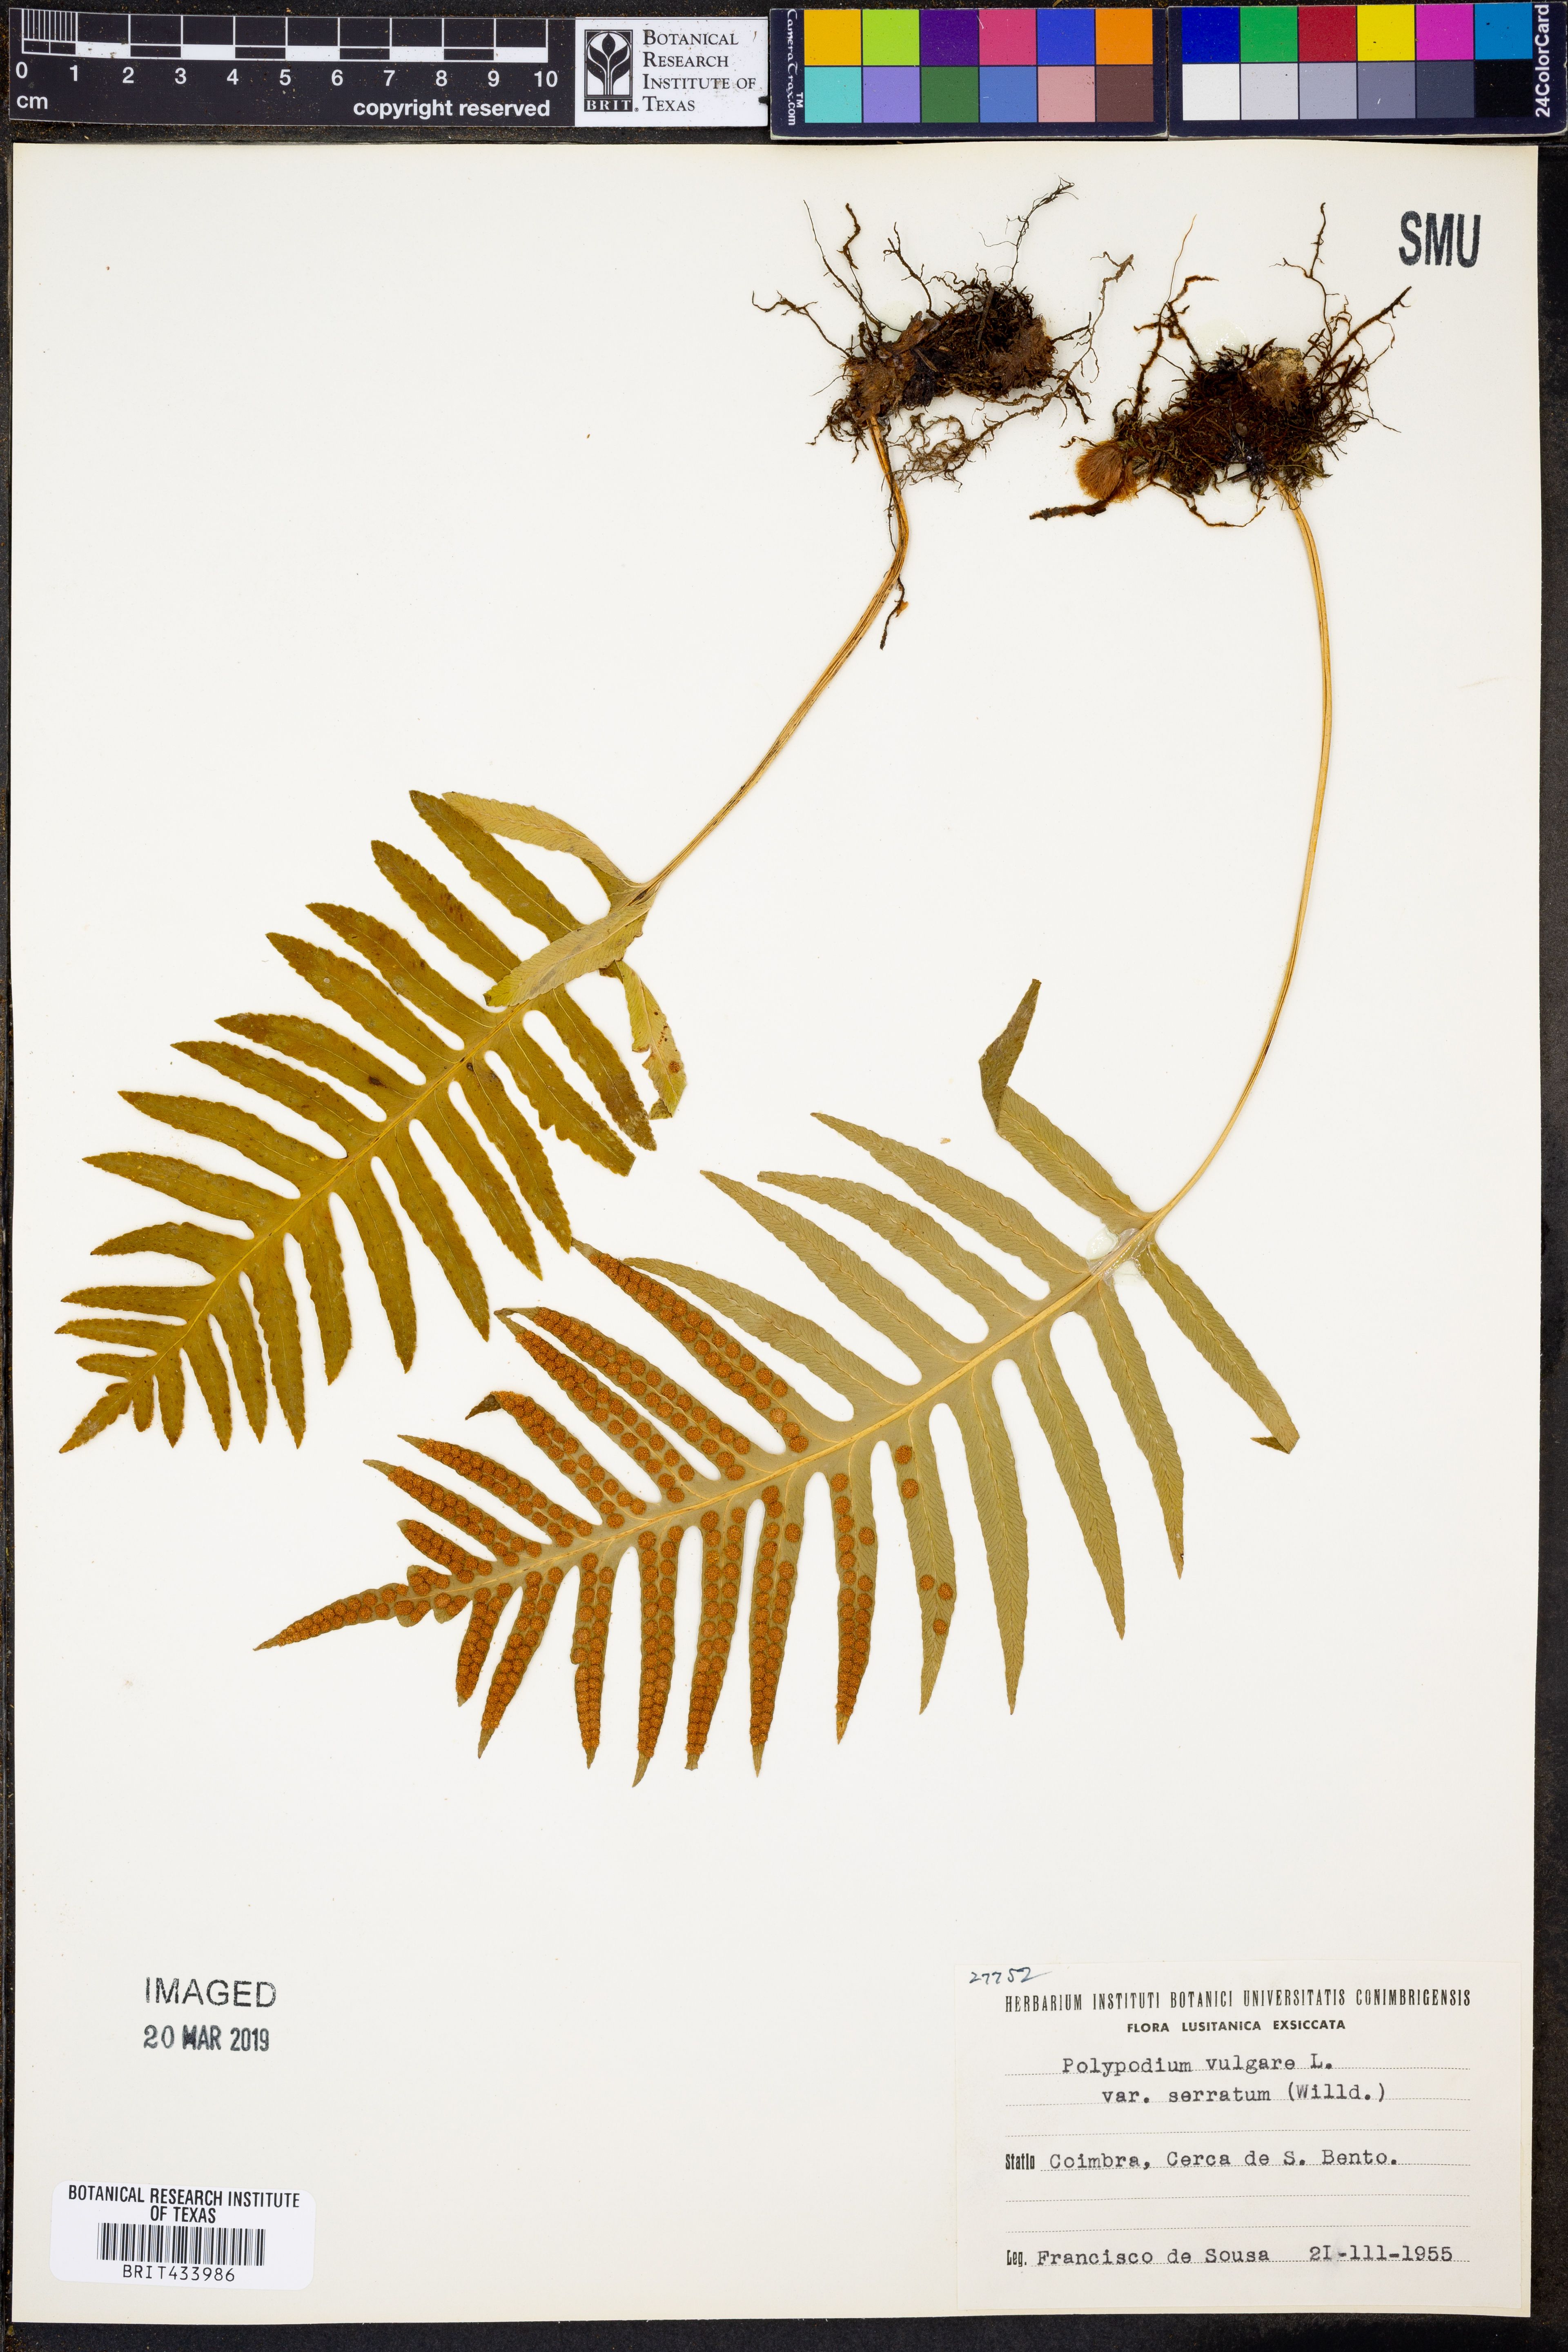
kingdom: Plantae
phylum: Tracheophyta
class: Polypodiopsida
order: Polypodiales
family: Polypodiaceae
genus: Polypodium
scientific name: Polypodium vulgare
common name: Common polypody
